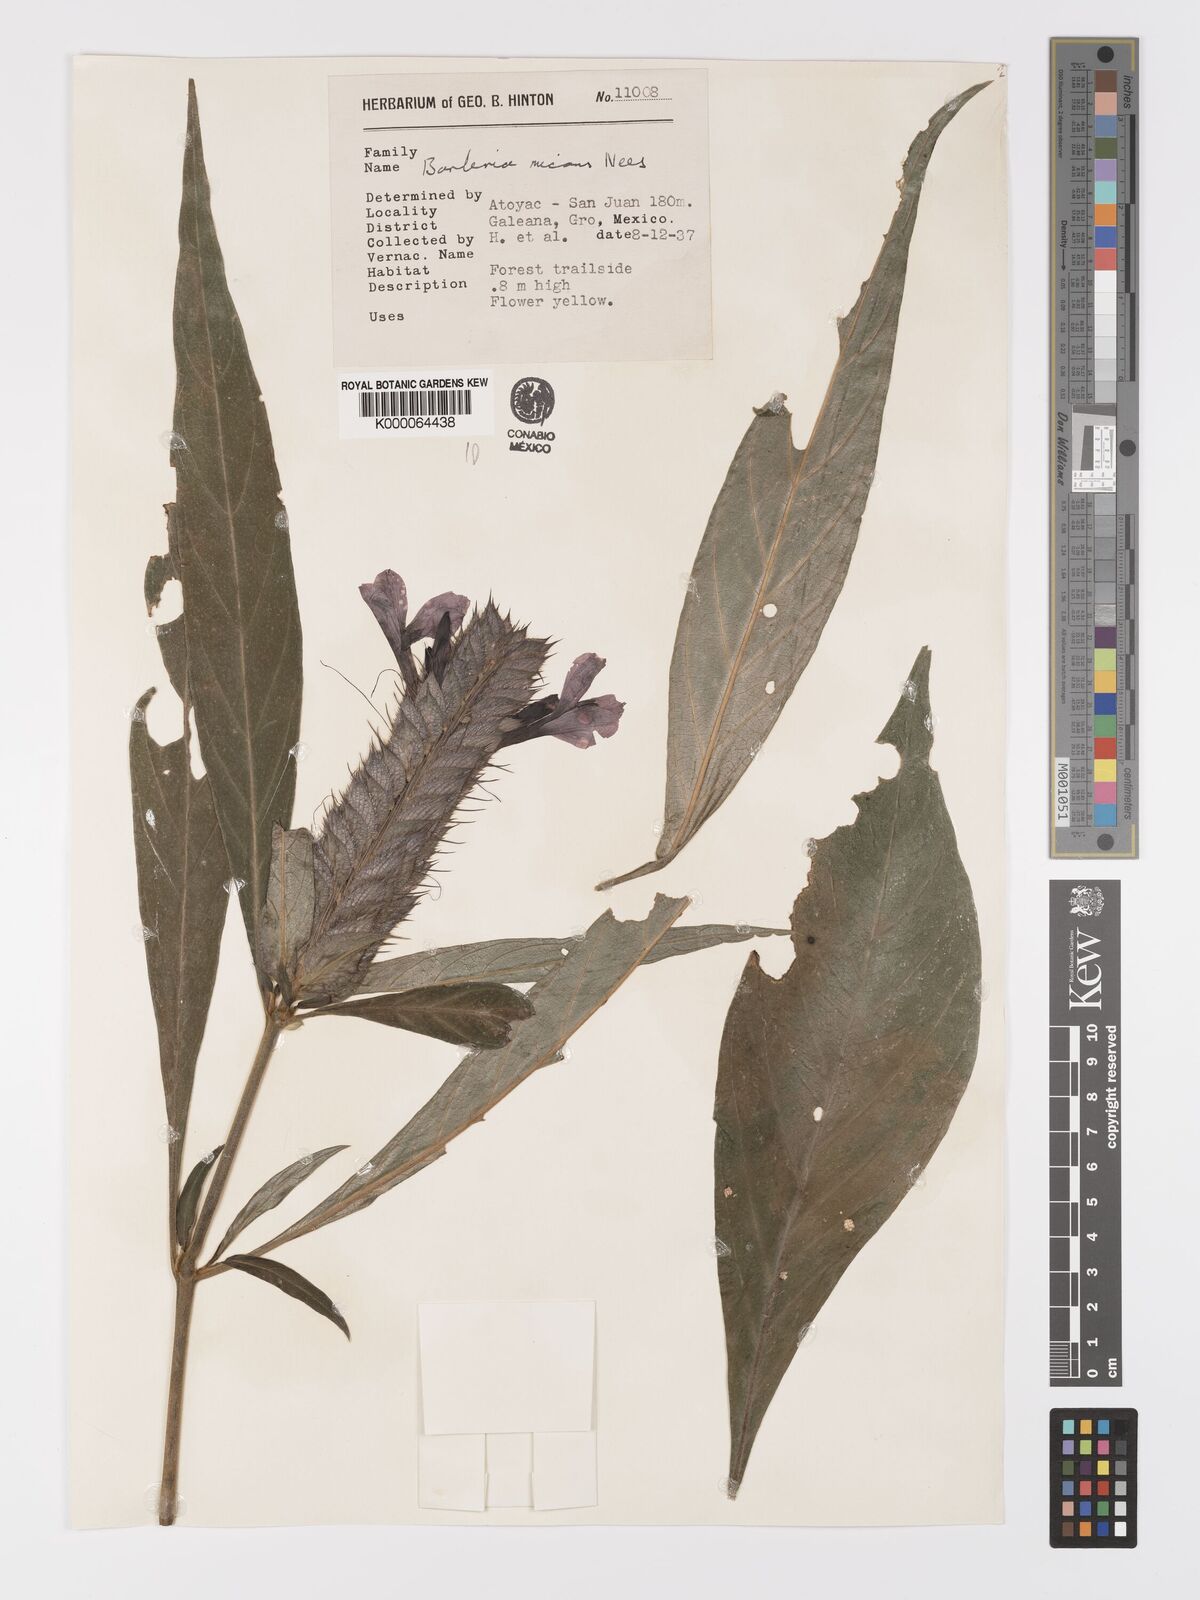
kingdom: Plantae
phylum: Tracheophyta
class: Magnoliopsida
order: Lamiales
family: Acanthaceae
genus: Barleria
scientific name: Barleria oenotheroides
